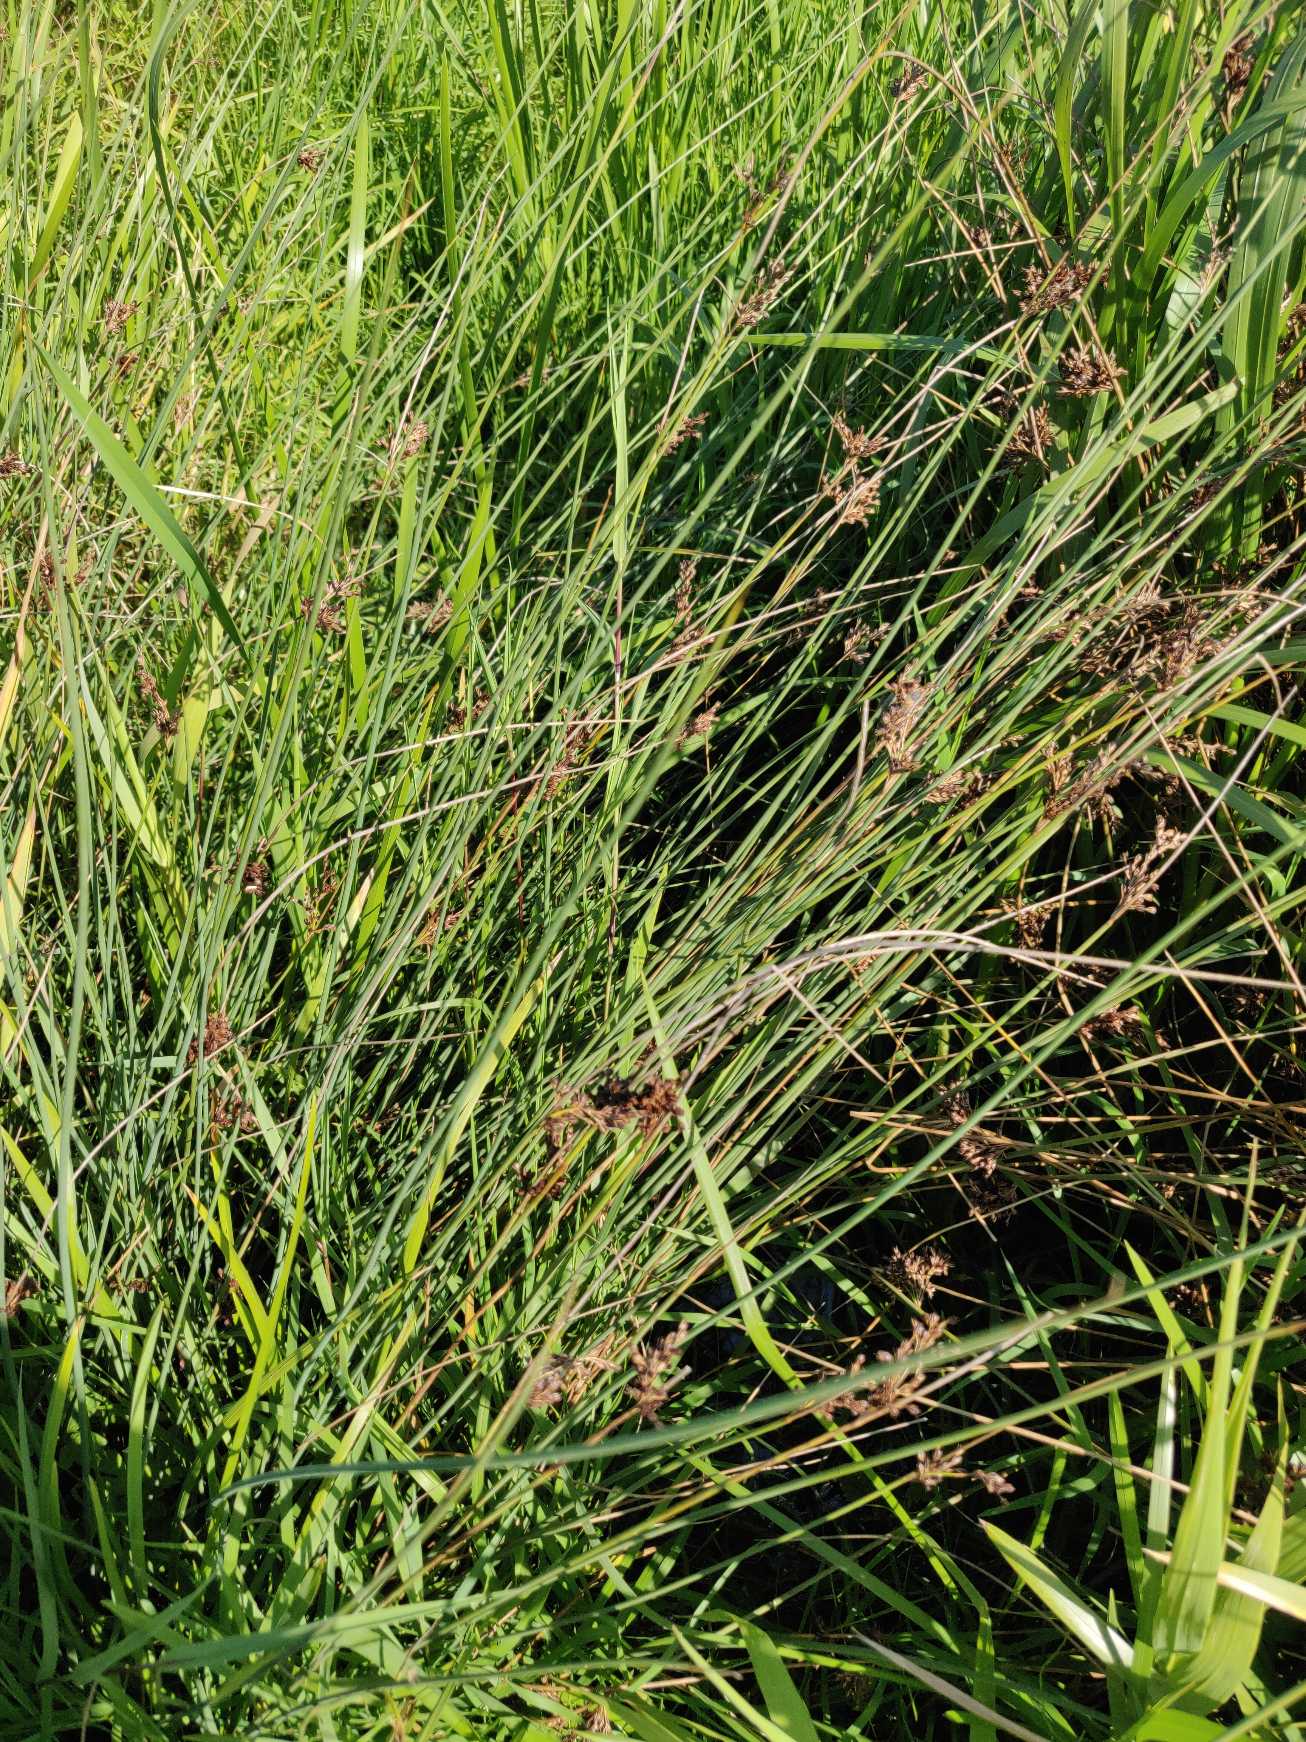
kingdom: Plantae
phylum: Tracheophyta
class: Liliopsida
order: Poales
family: Juncaceae
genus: Juncus
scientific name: Juncus inflexus
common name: Blågrå siv
